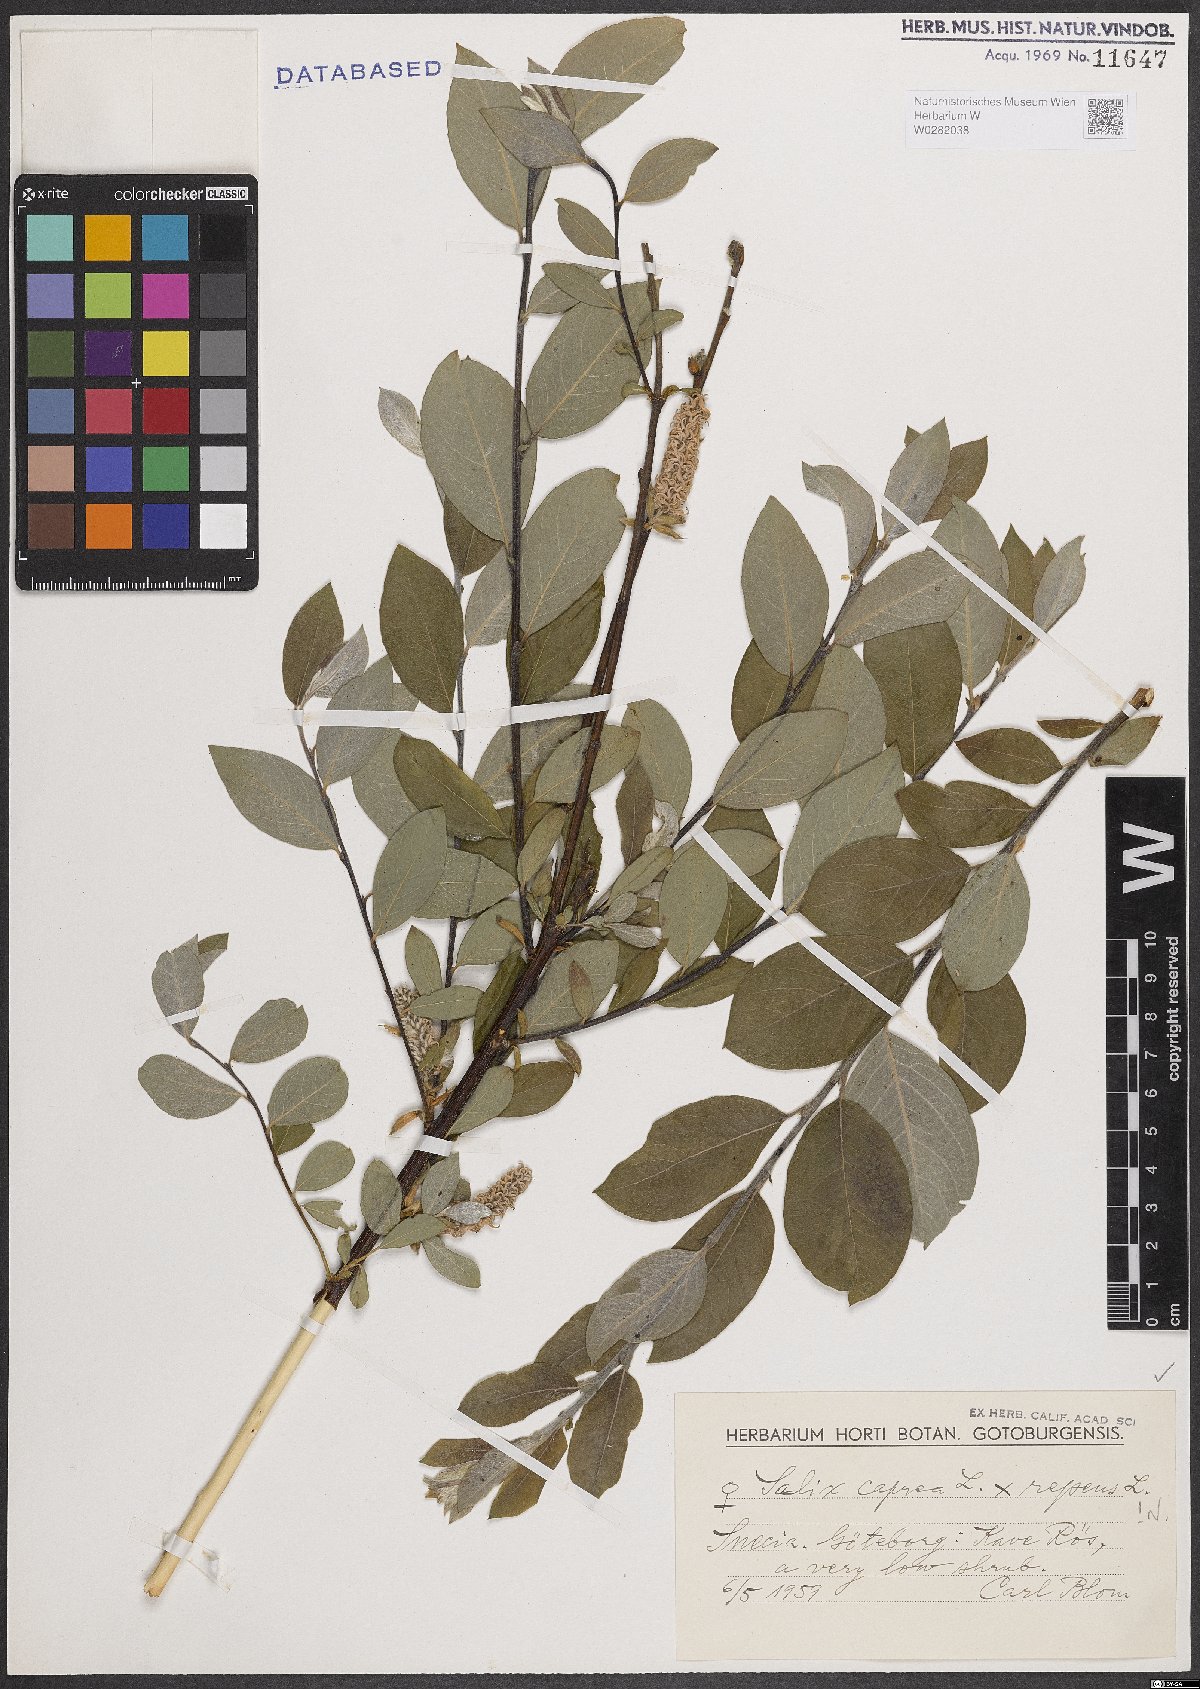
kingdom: Plantae
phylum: Tracheophyta
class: Magnoliopsida
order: Malpighiales
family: Salicaceae
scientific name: Salicaceae
